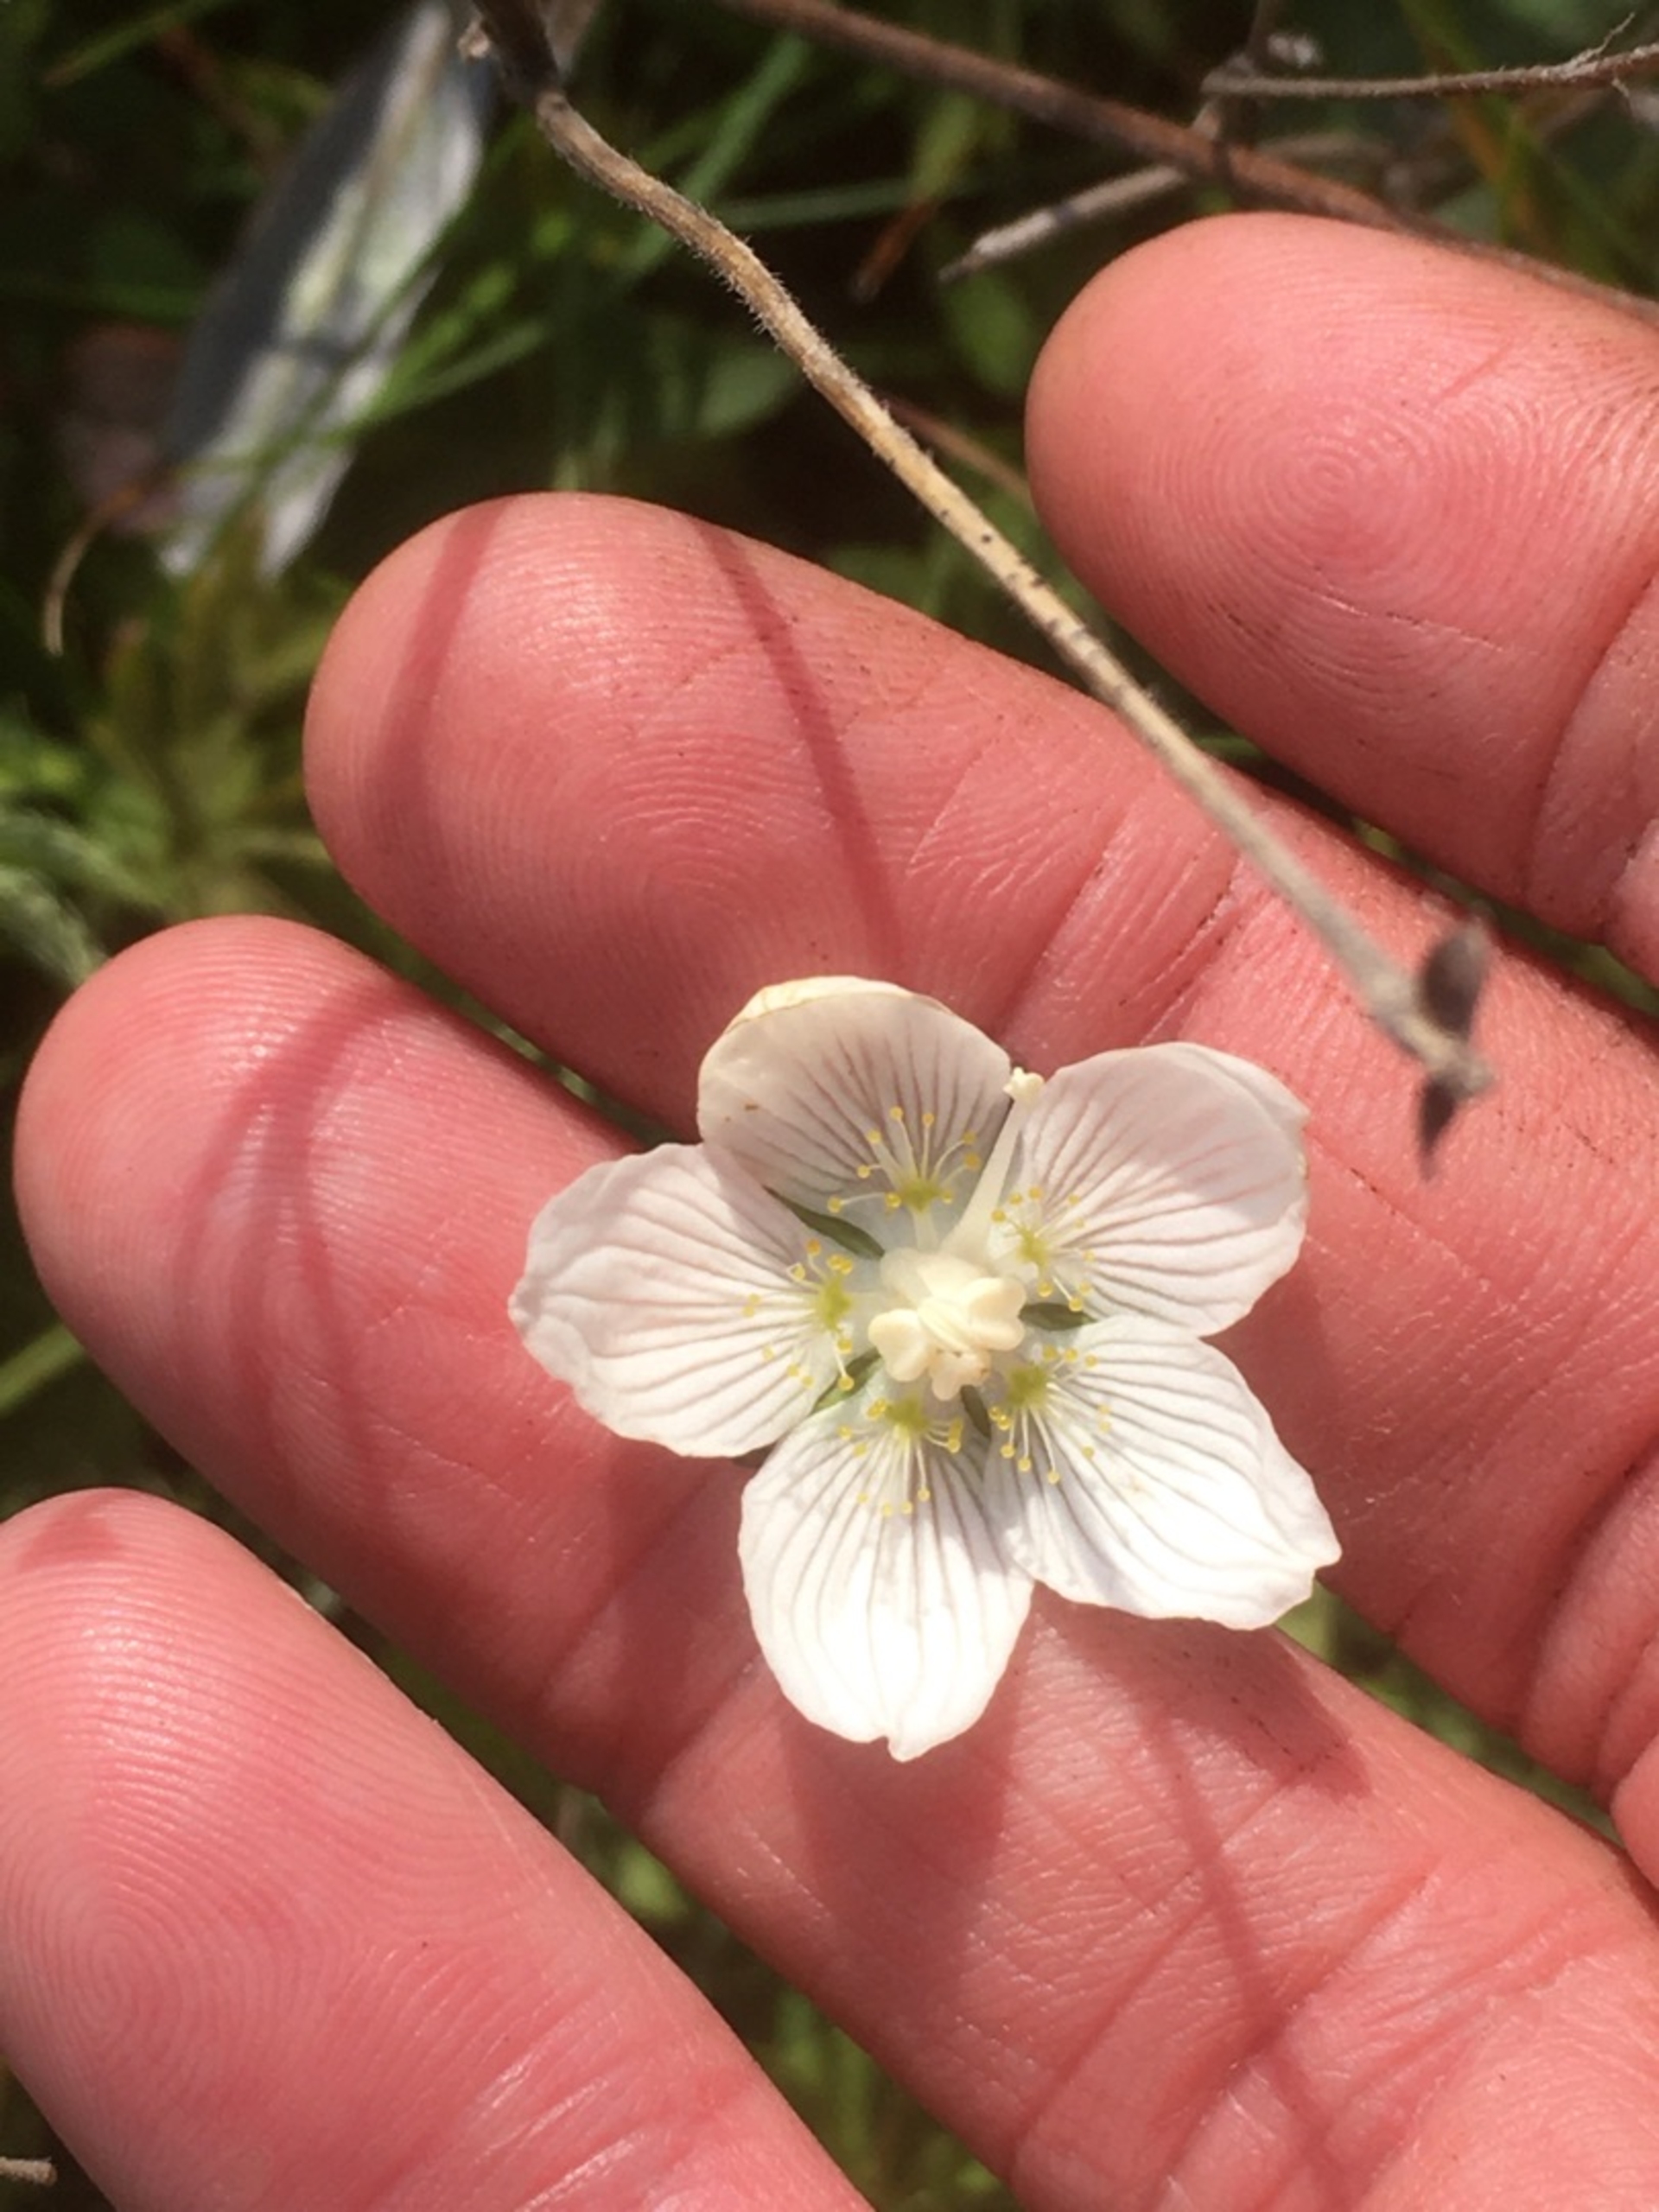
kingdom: Plantae
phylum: Tracheophyta
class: Magnoliopsida
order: Celastrales
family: Parnassiaceae
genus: Parnassia
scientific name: Parnassia palustris
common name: Leverurt
